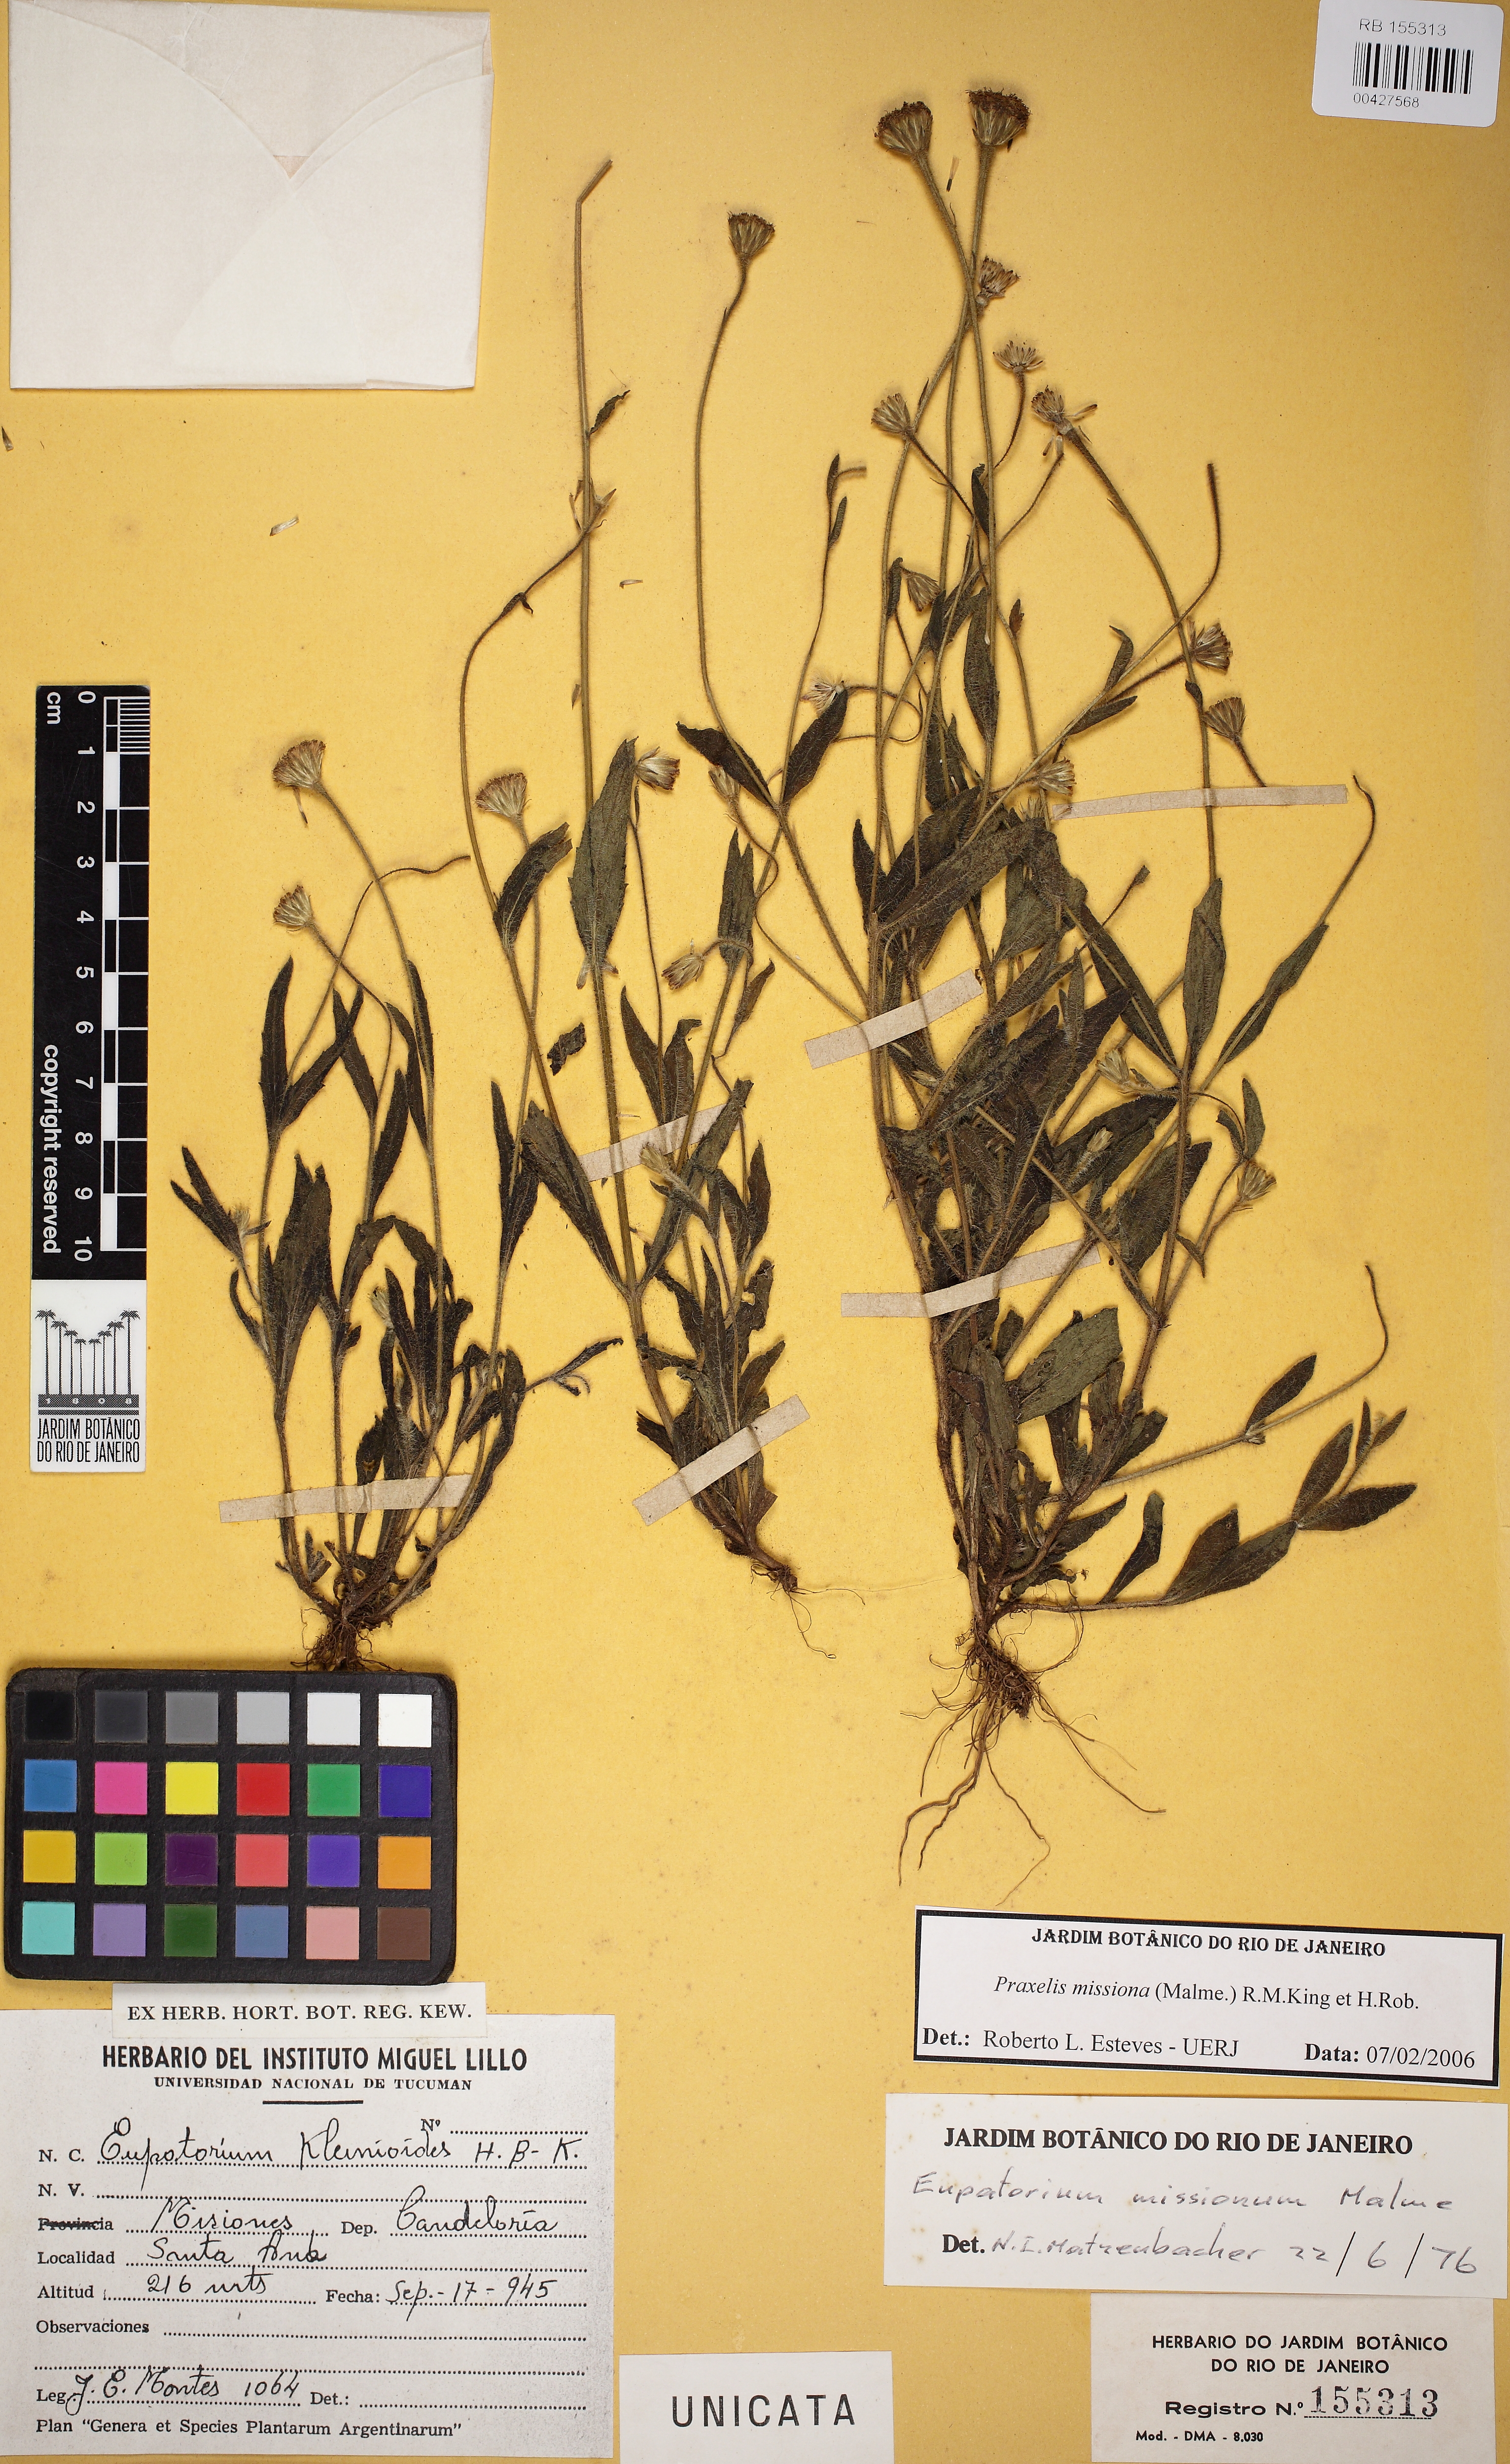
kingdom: Plantae
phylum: Tracheophyta
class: Magnoliopsida
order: Asterales
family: Asteraceae
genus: Praxelis
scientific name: Praxelis missiona
